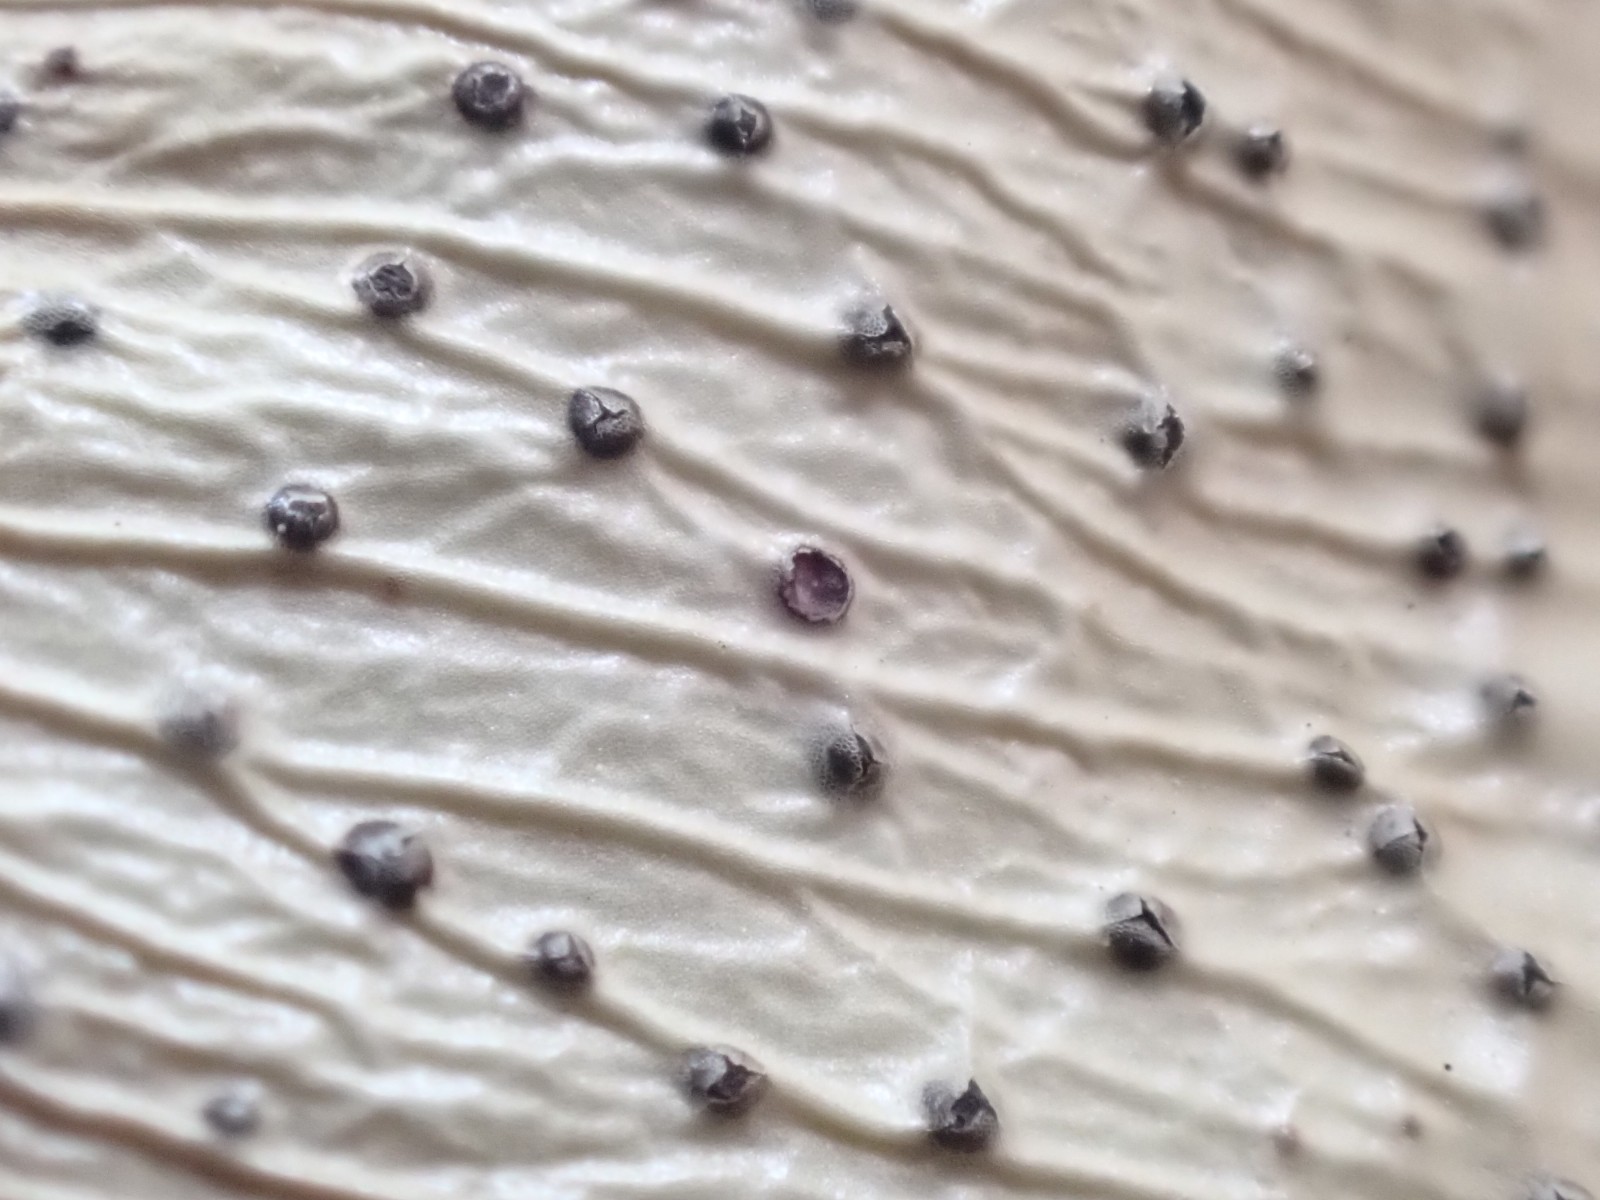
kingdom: Fungi
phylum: Ascomycota
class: Sordariomycetes
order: Diaporthales
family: Diaporthaceae
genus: Diaporthe
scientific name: Diaporthe stictica
